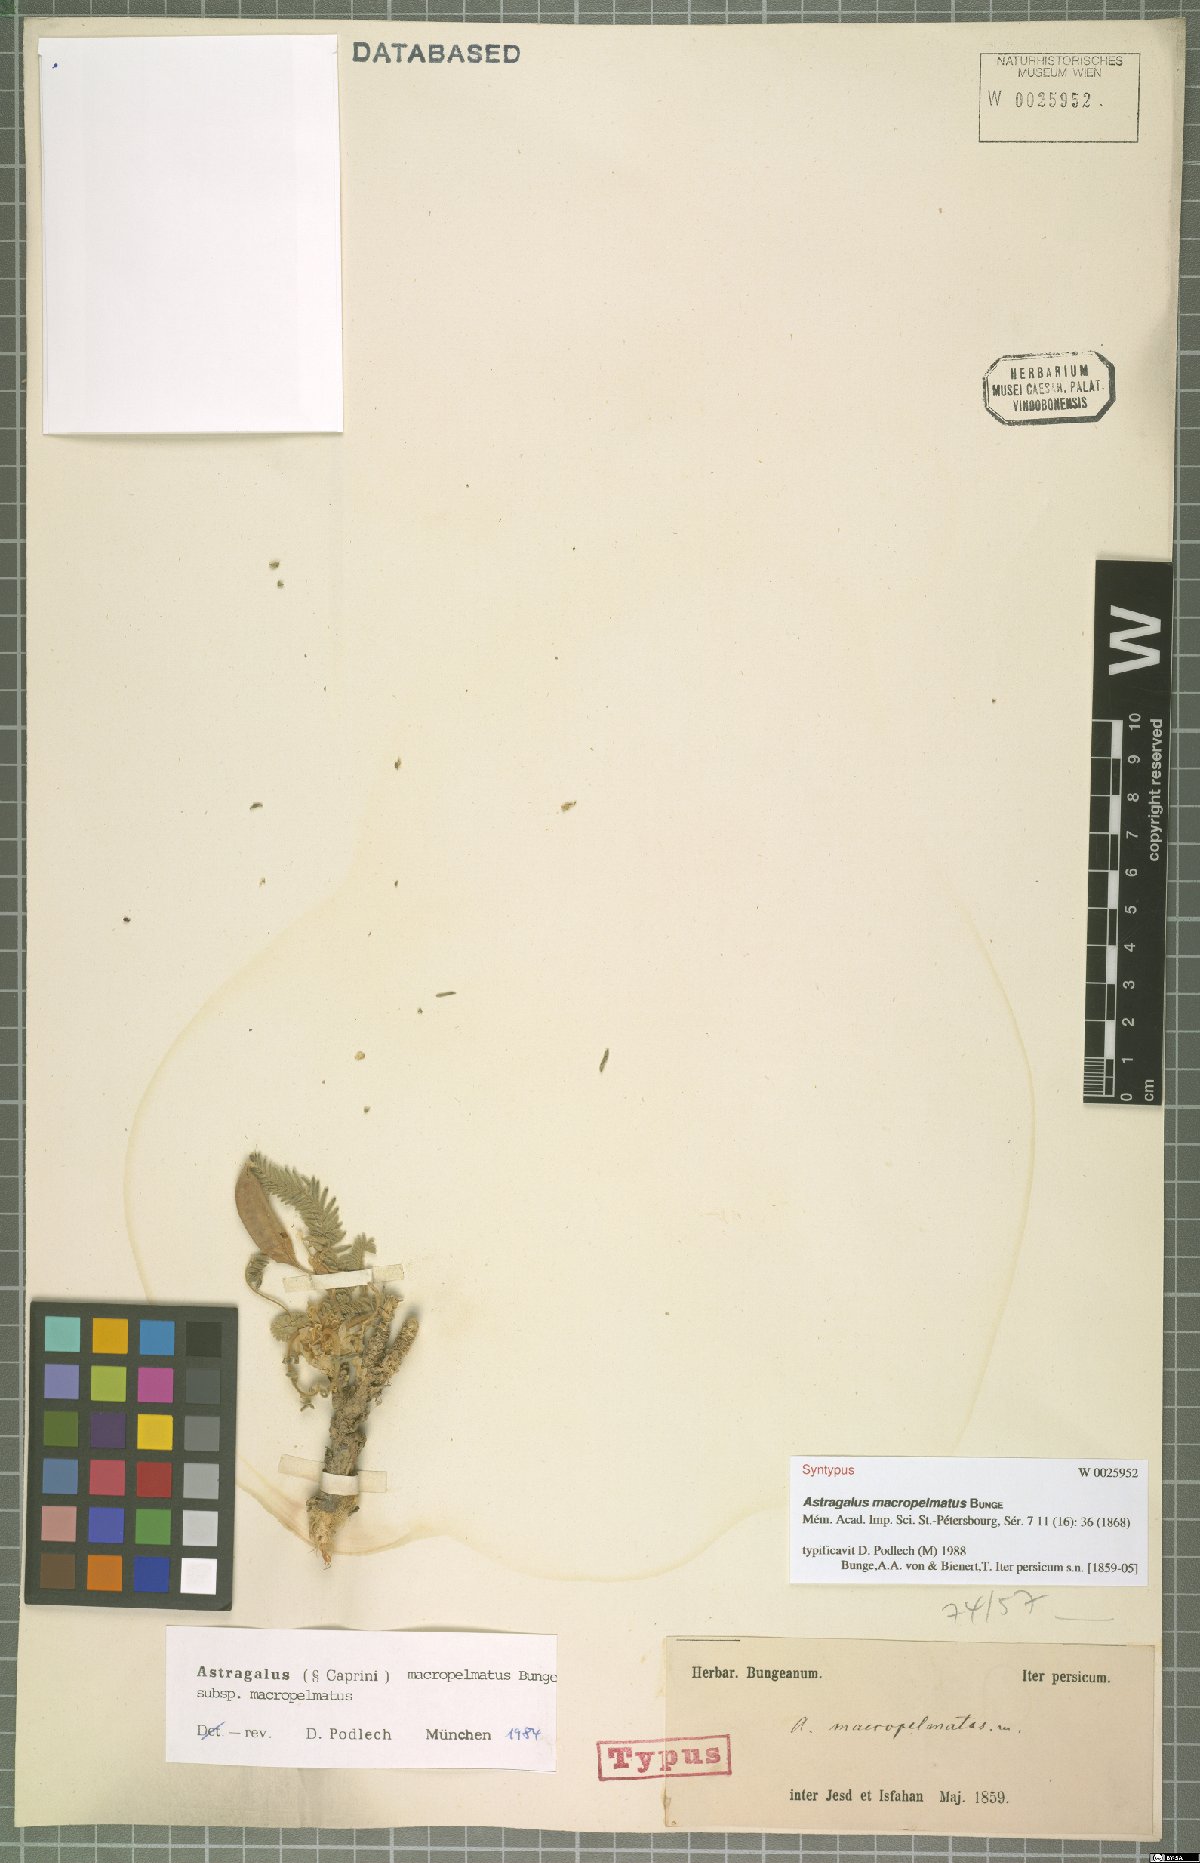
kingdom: Plantae
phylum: Tracheophyta
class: Magnoliopsida
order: Fabales
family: Fabaceae
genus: Astragalus
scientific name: Astragalus macropelmatus
